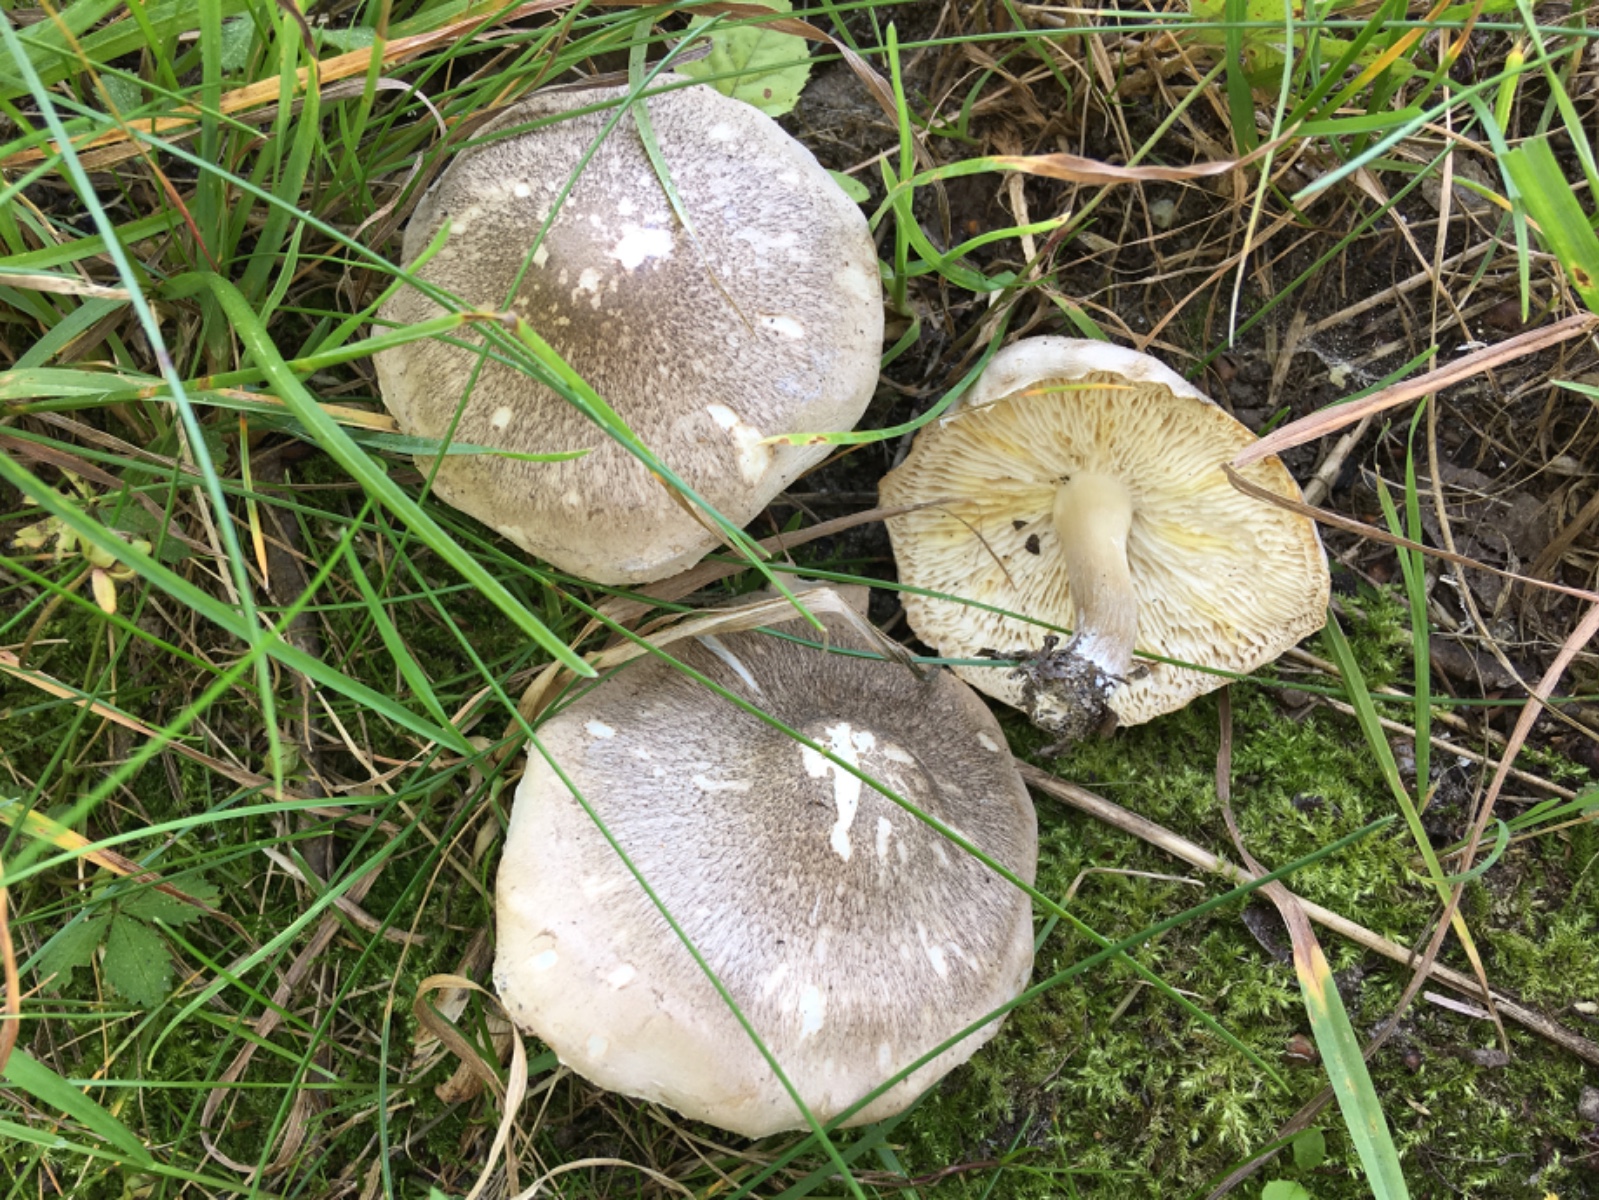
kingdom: Fungi
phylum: Basidiomycota
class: Agaricomycetes
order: Agaricales
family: Tricholomataceae
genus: Tricholoma
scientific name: Tricholoma scalpturatum
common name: gulplettet ridderhat
